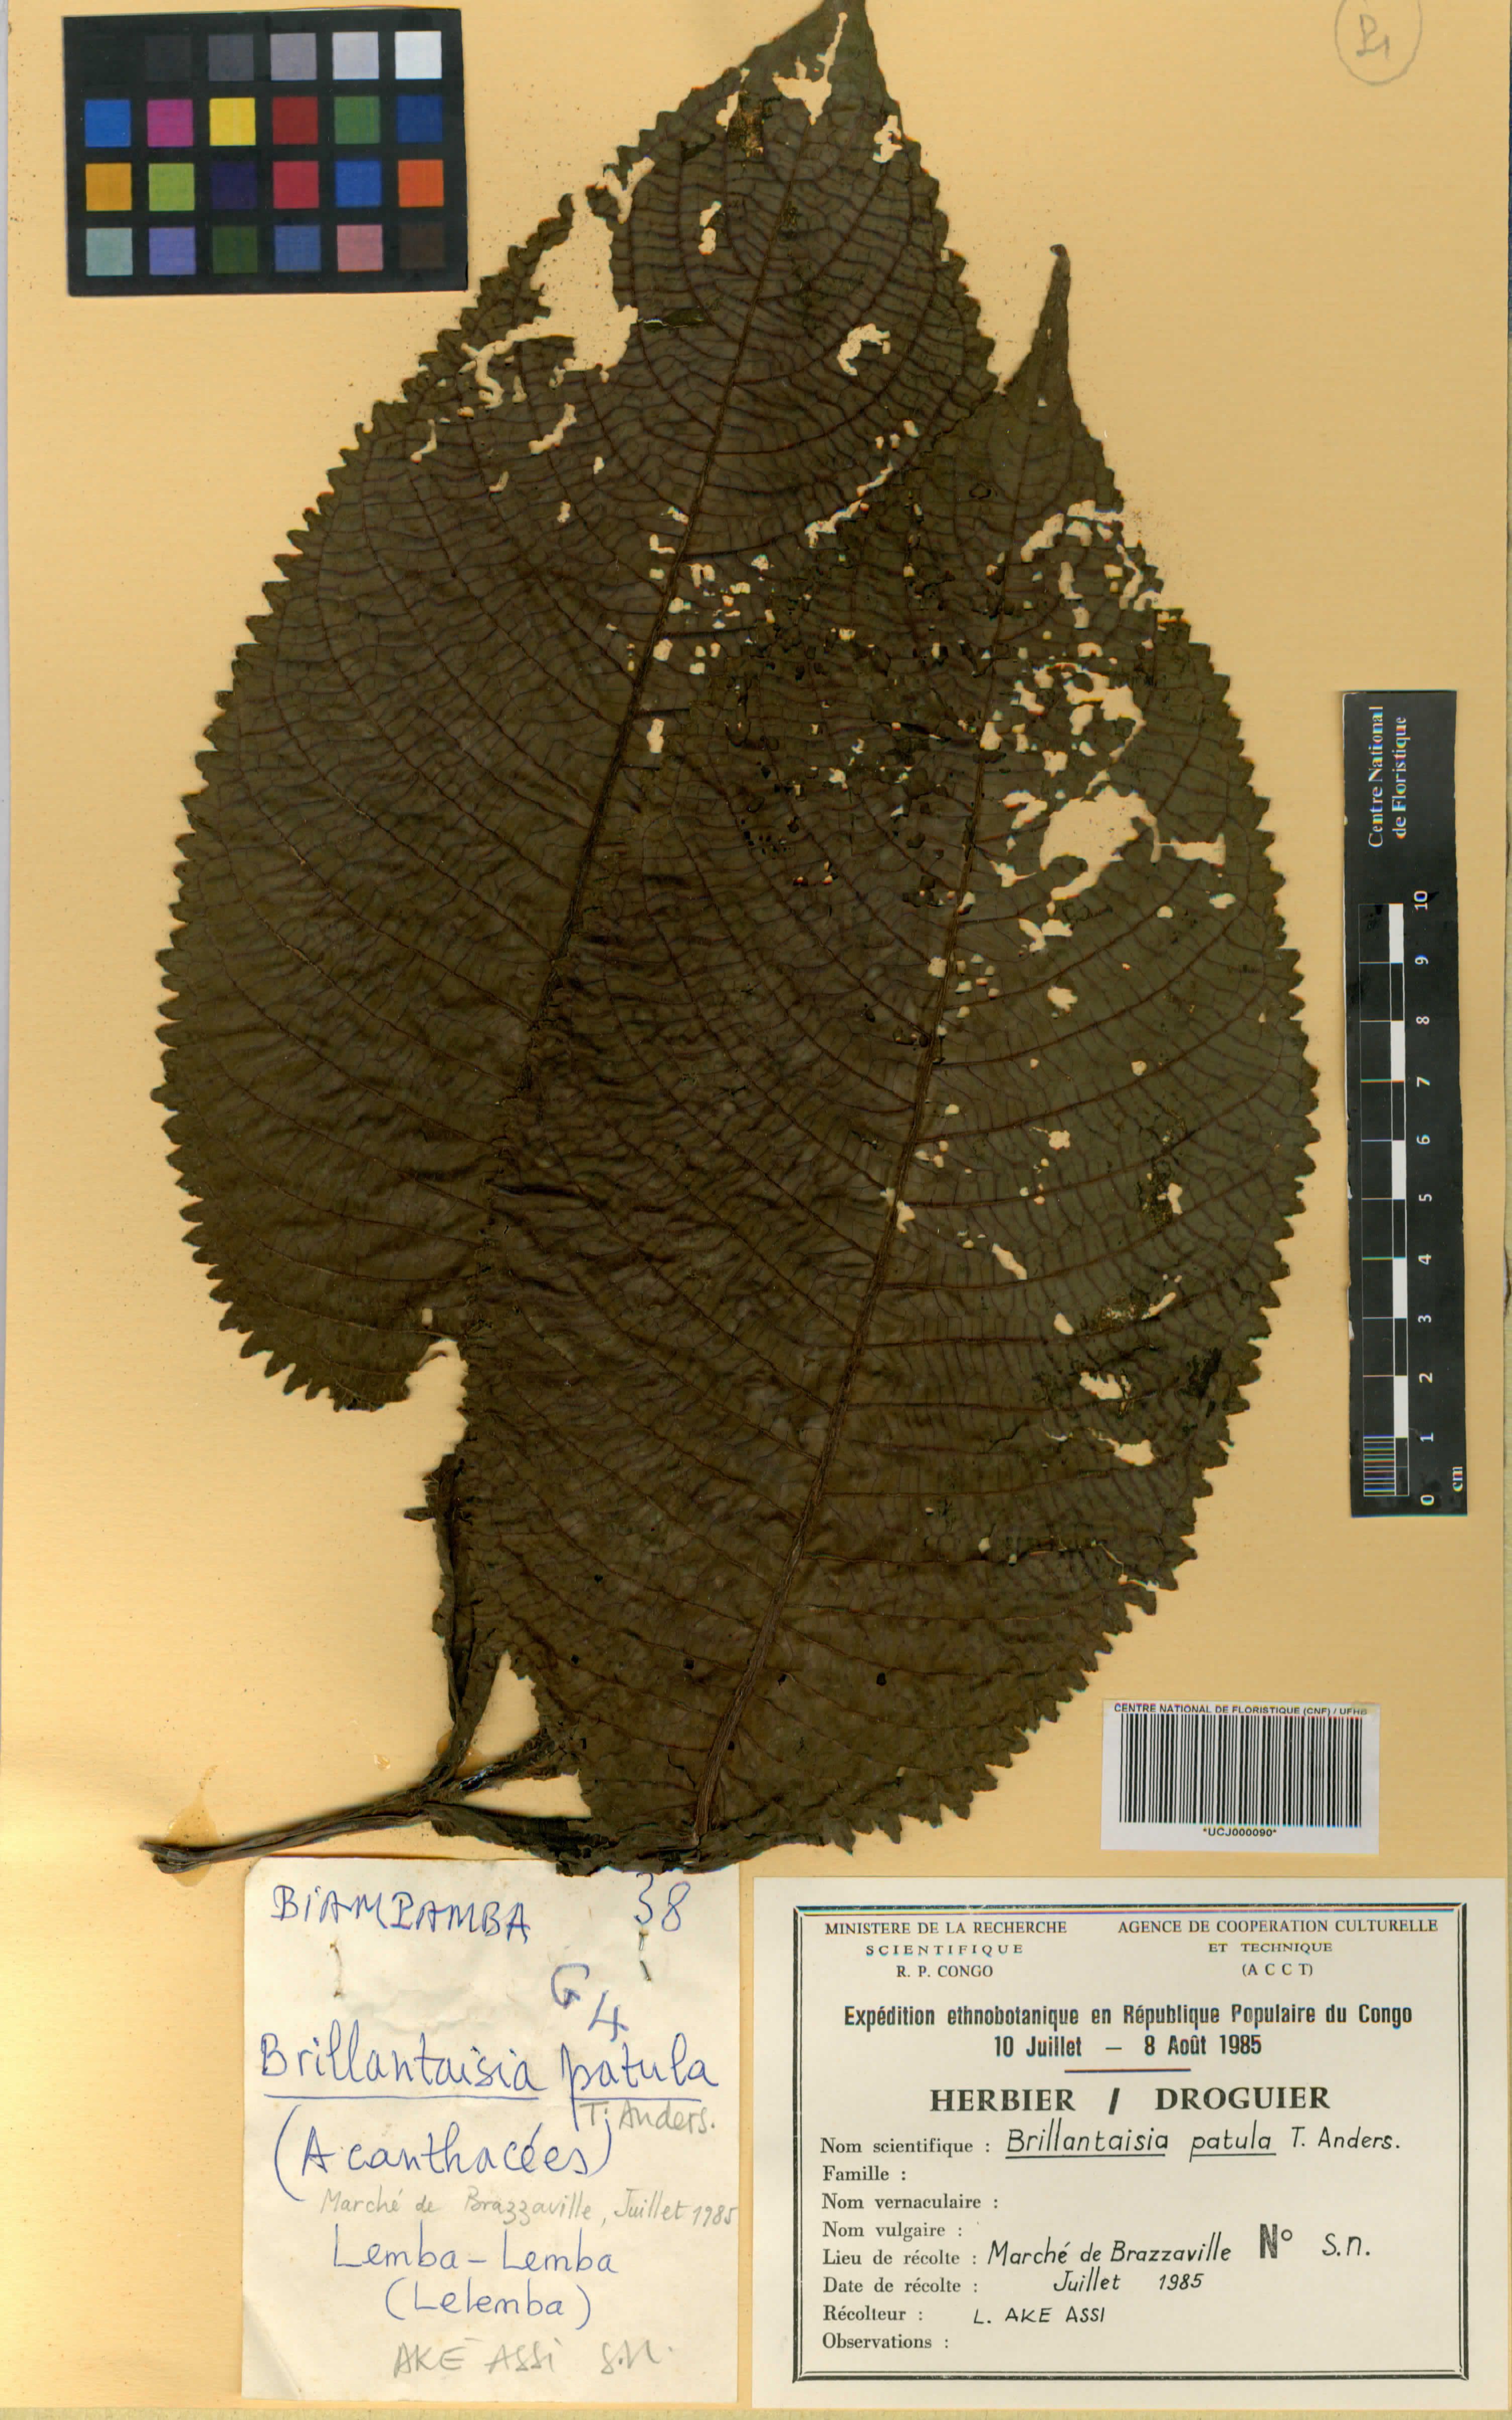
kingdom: Plantae
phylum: Tracheophyta
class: Magnoliopsida
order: Lamiales
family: Acanthaceae
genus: Brillantaisia
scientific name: Brillantaisia owariensis
